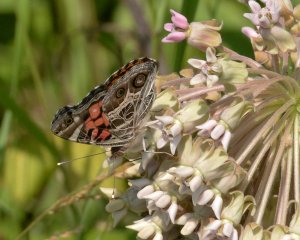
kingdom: Animalia
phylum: Arthropoda
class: Insecta
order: Lepidoptera
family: Nymphalidae
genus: Vanessa
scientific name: Vanessa virginiensis
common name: American Lady
